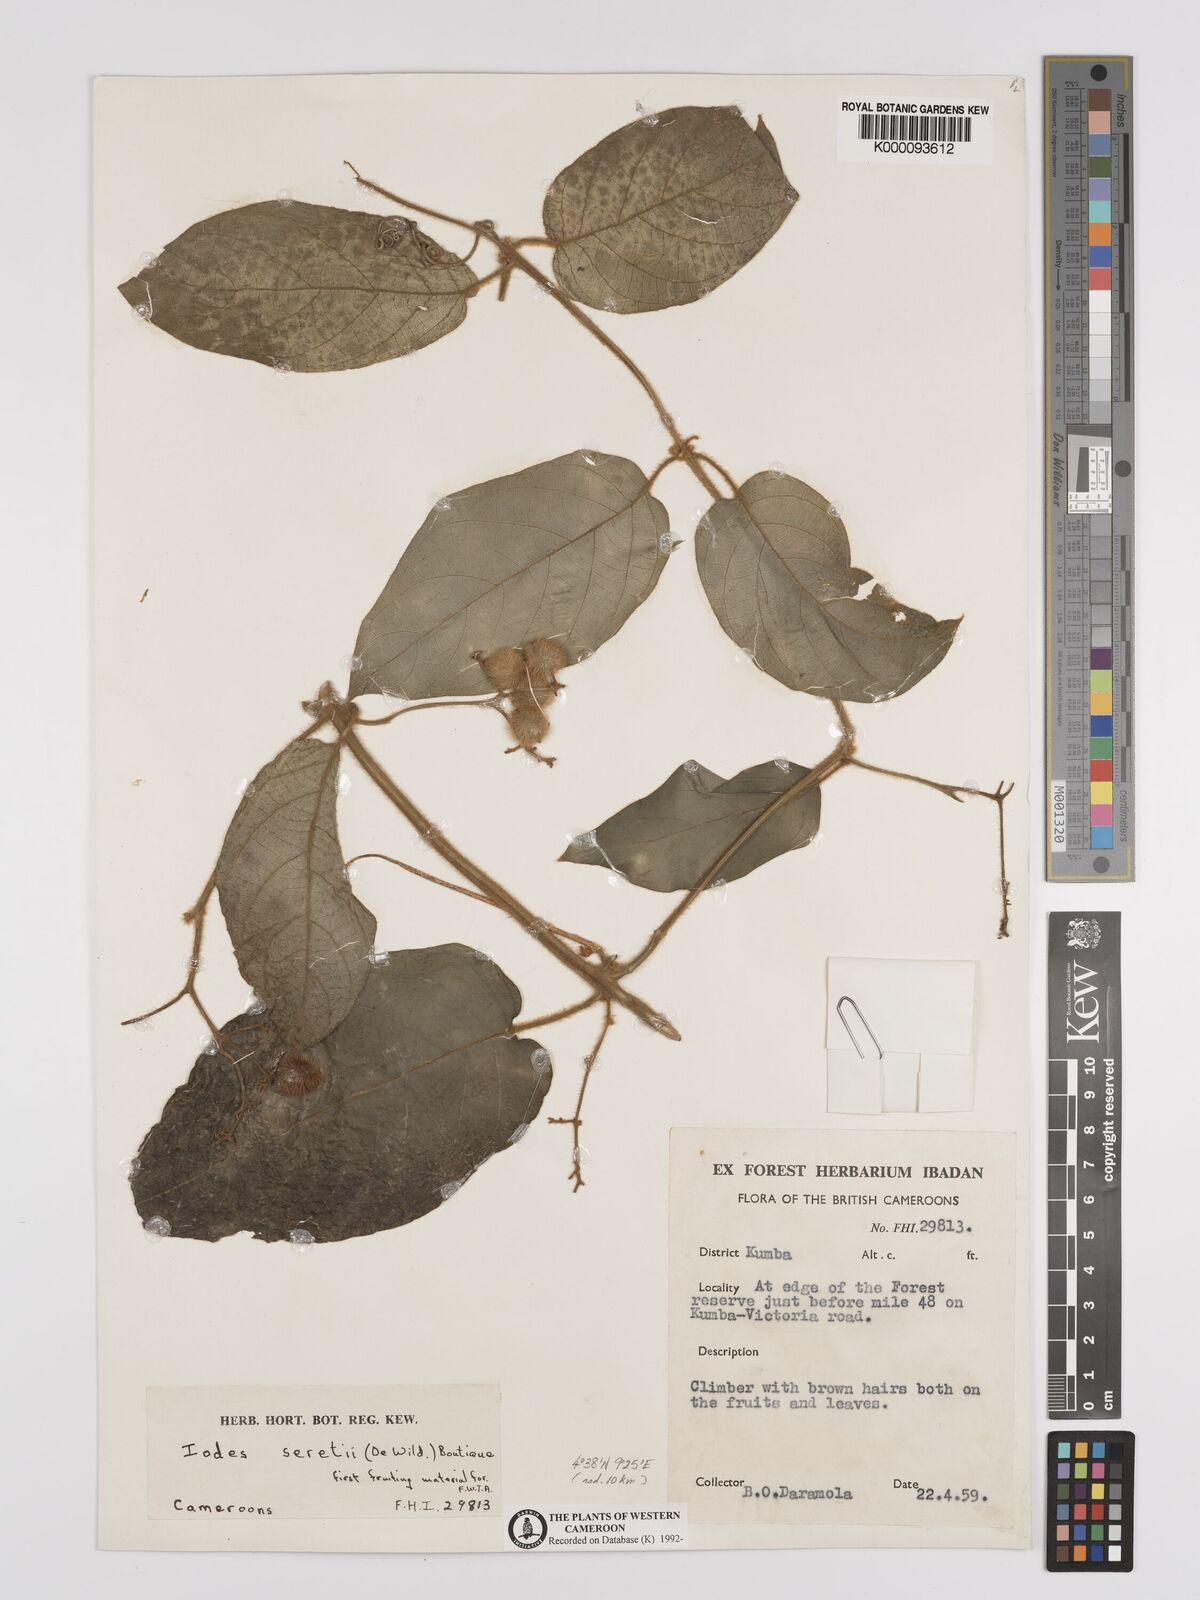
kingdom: Plantae
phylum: Tracheophyta
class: Magnoliopsida
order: Icacinales
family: Icacinaceae
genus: Iodes
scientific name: Iodes seretii
